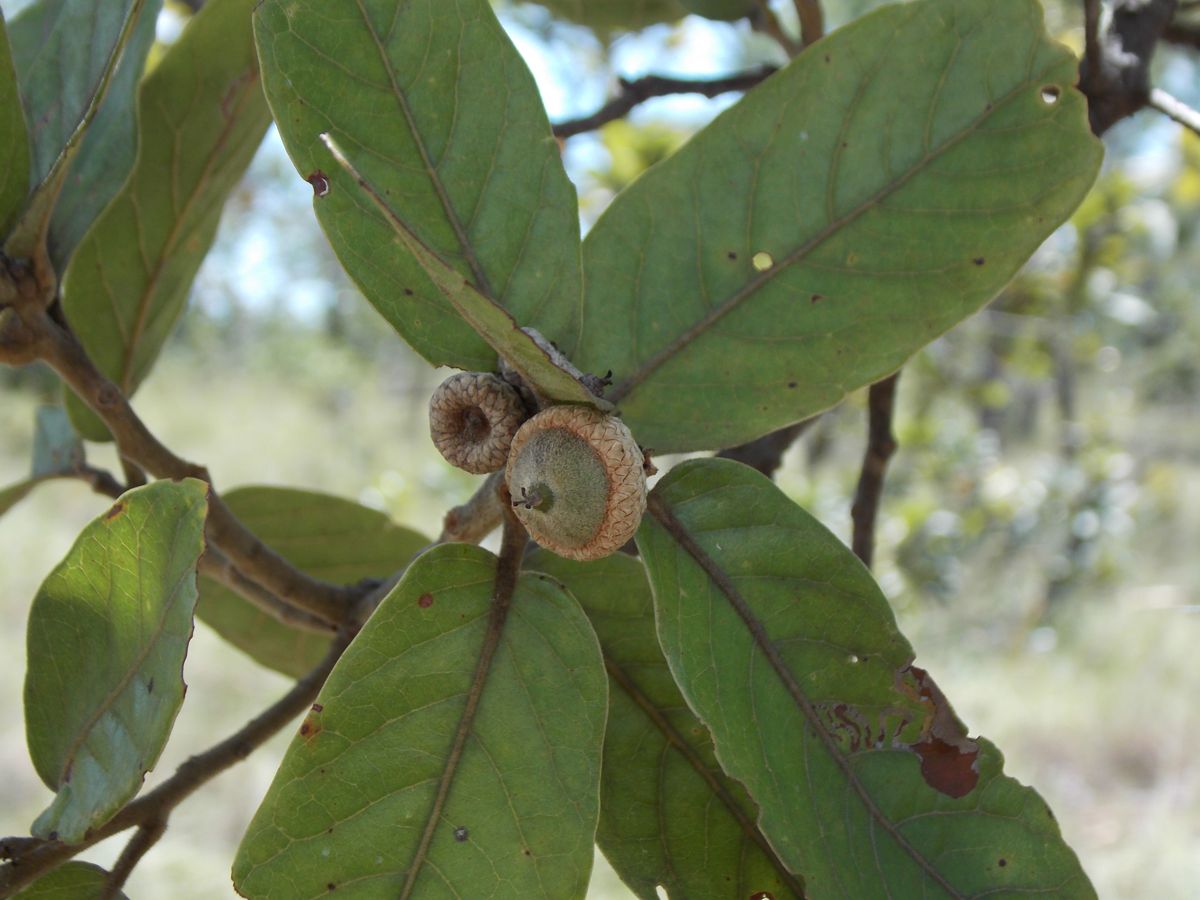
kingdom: Plantae
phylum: Tracheophyta
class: Magnoliopsida
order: Fagales
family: Fagaceae
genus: Quercus
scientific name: Quercus elliptica
